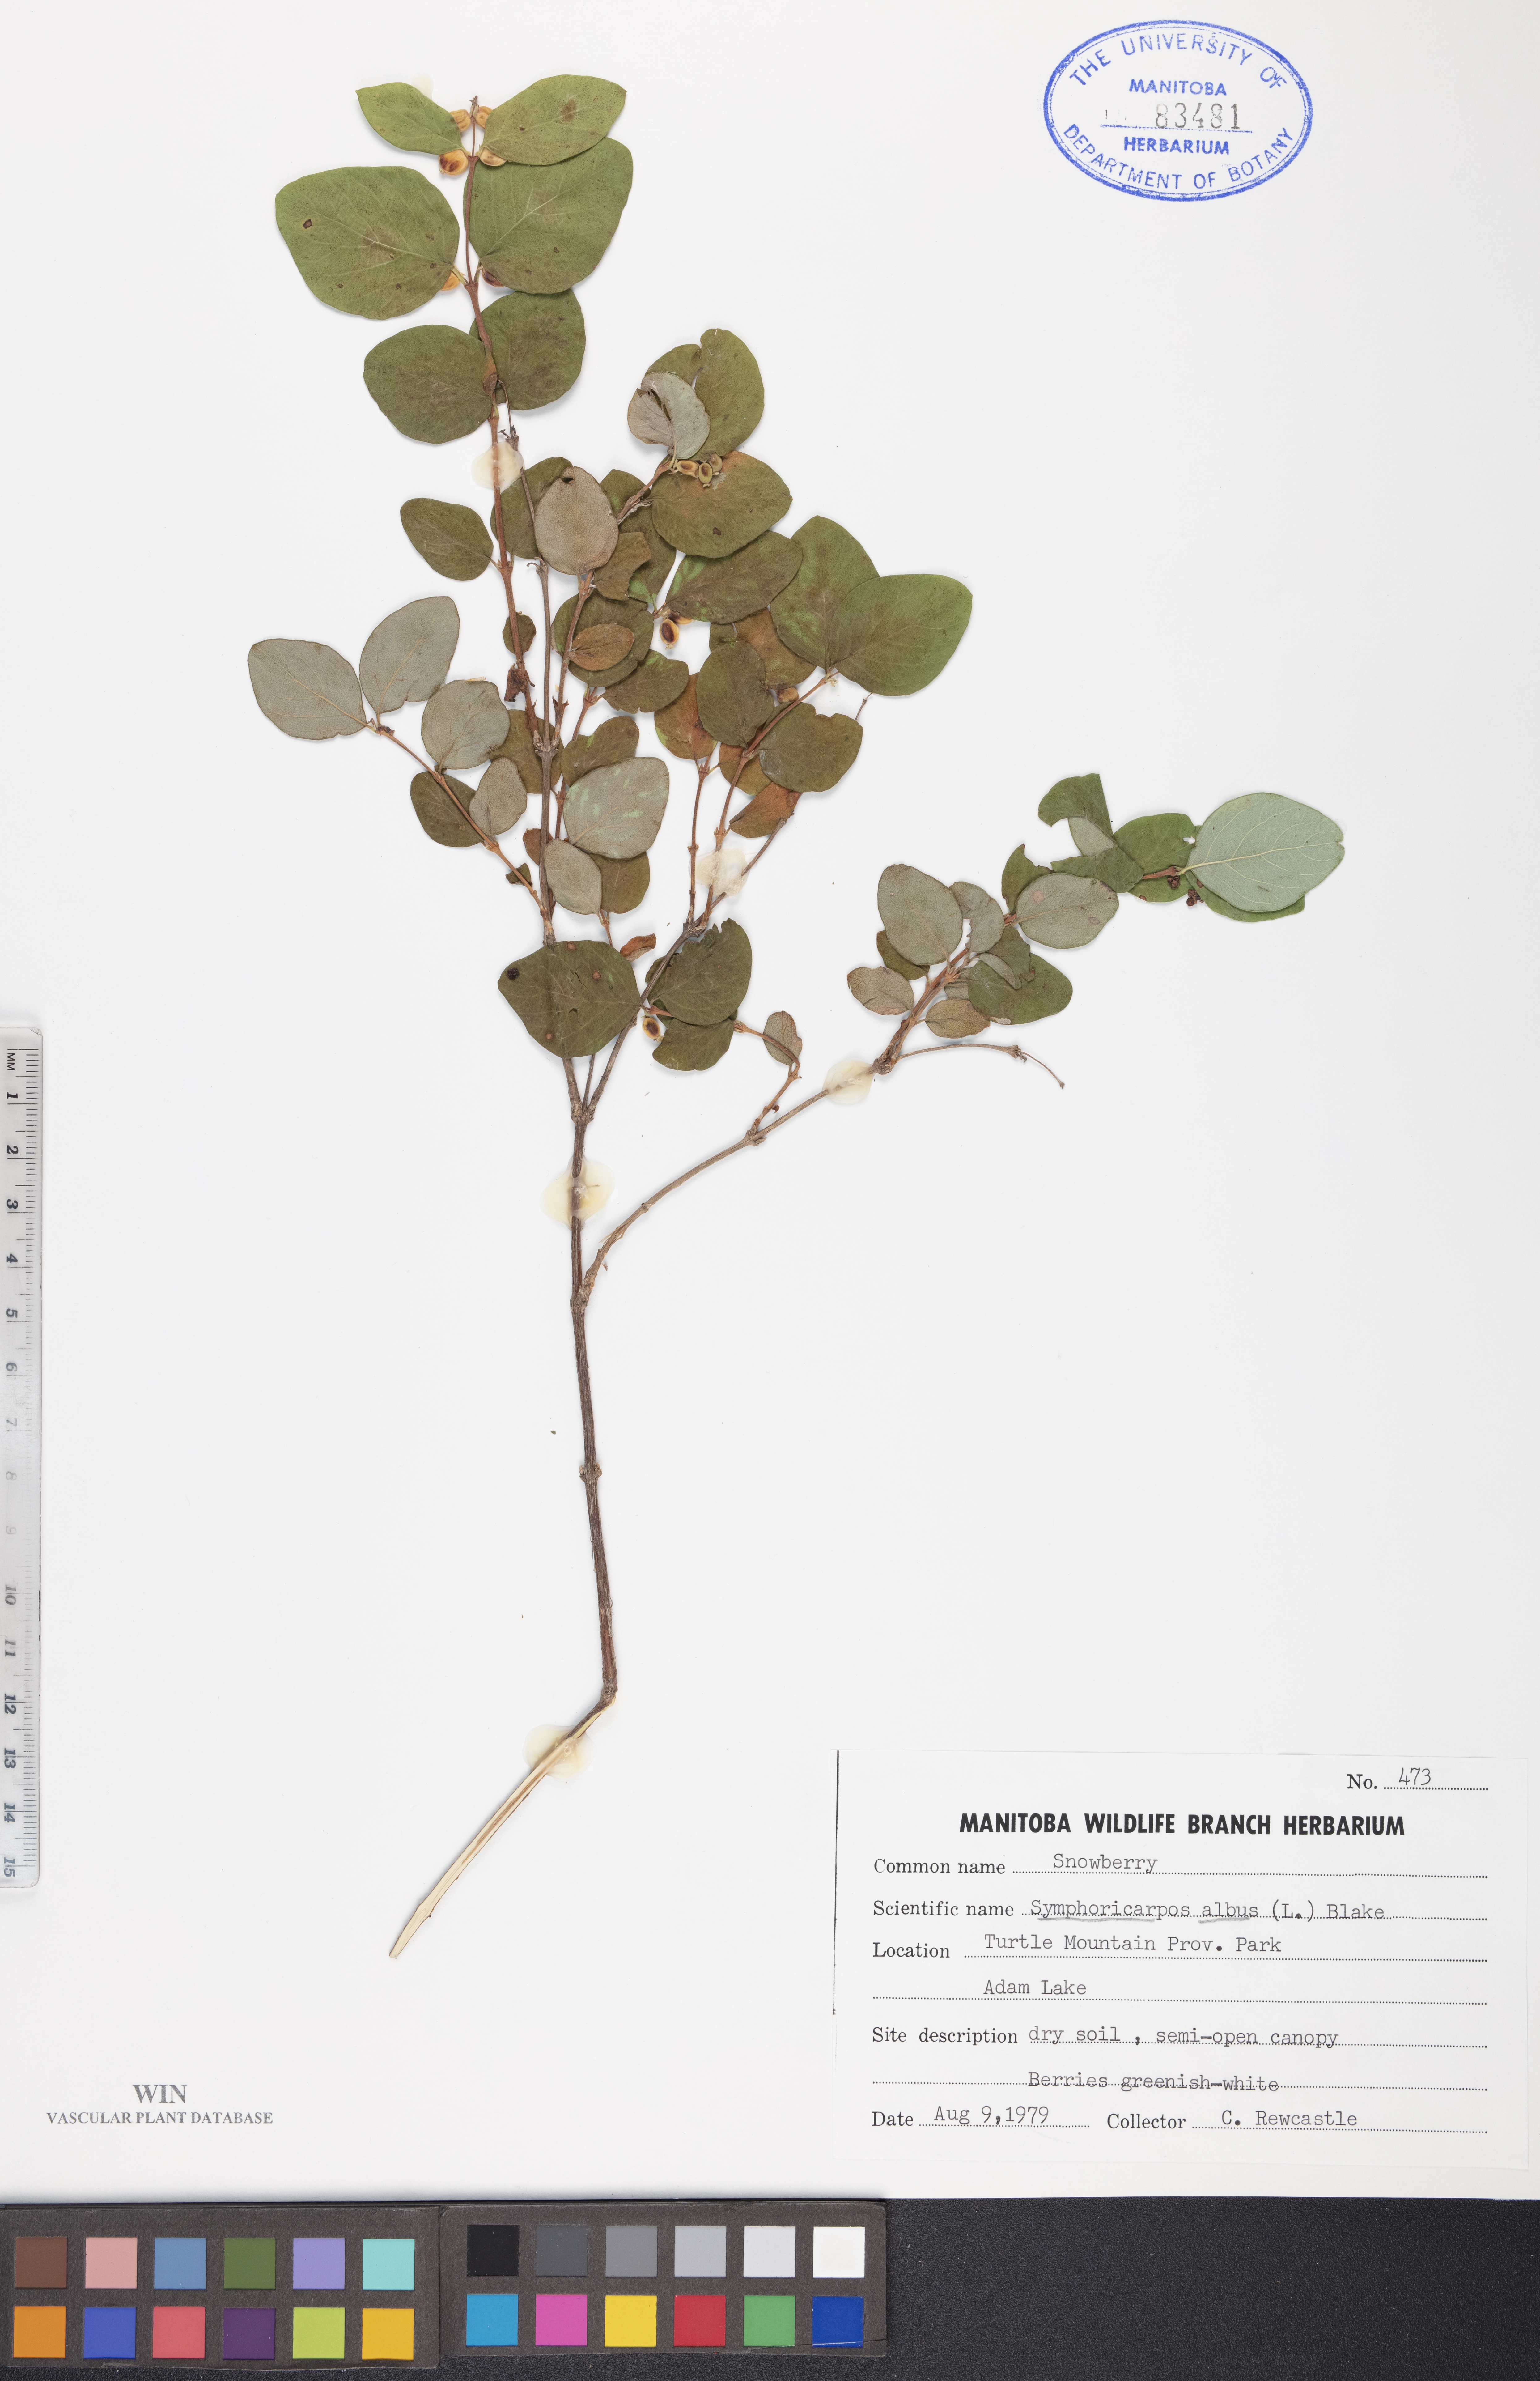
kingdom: Plantae
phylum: Tracheophyta
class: Magnoliopsida
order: Dipsacales
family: Caprifoliaceae
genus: Symphoricarpos
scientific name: Symphoricarpos albus
